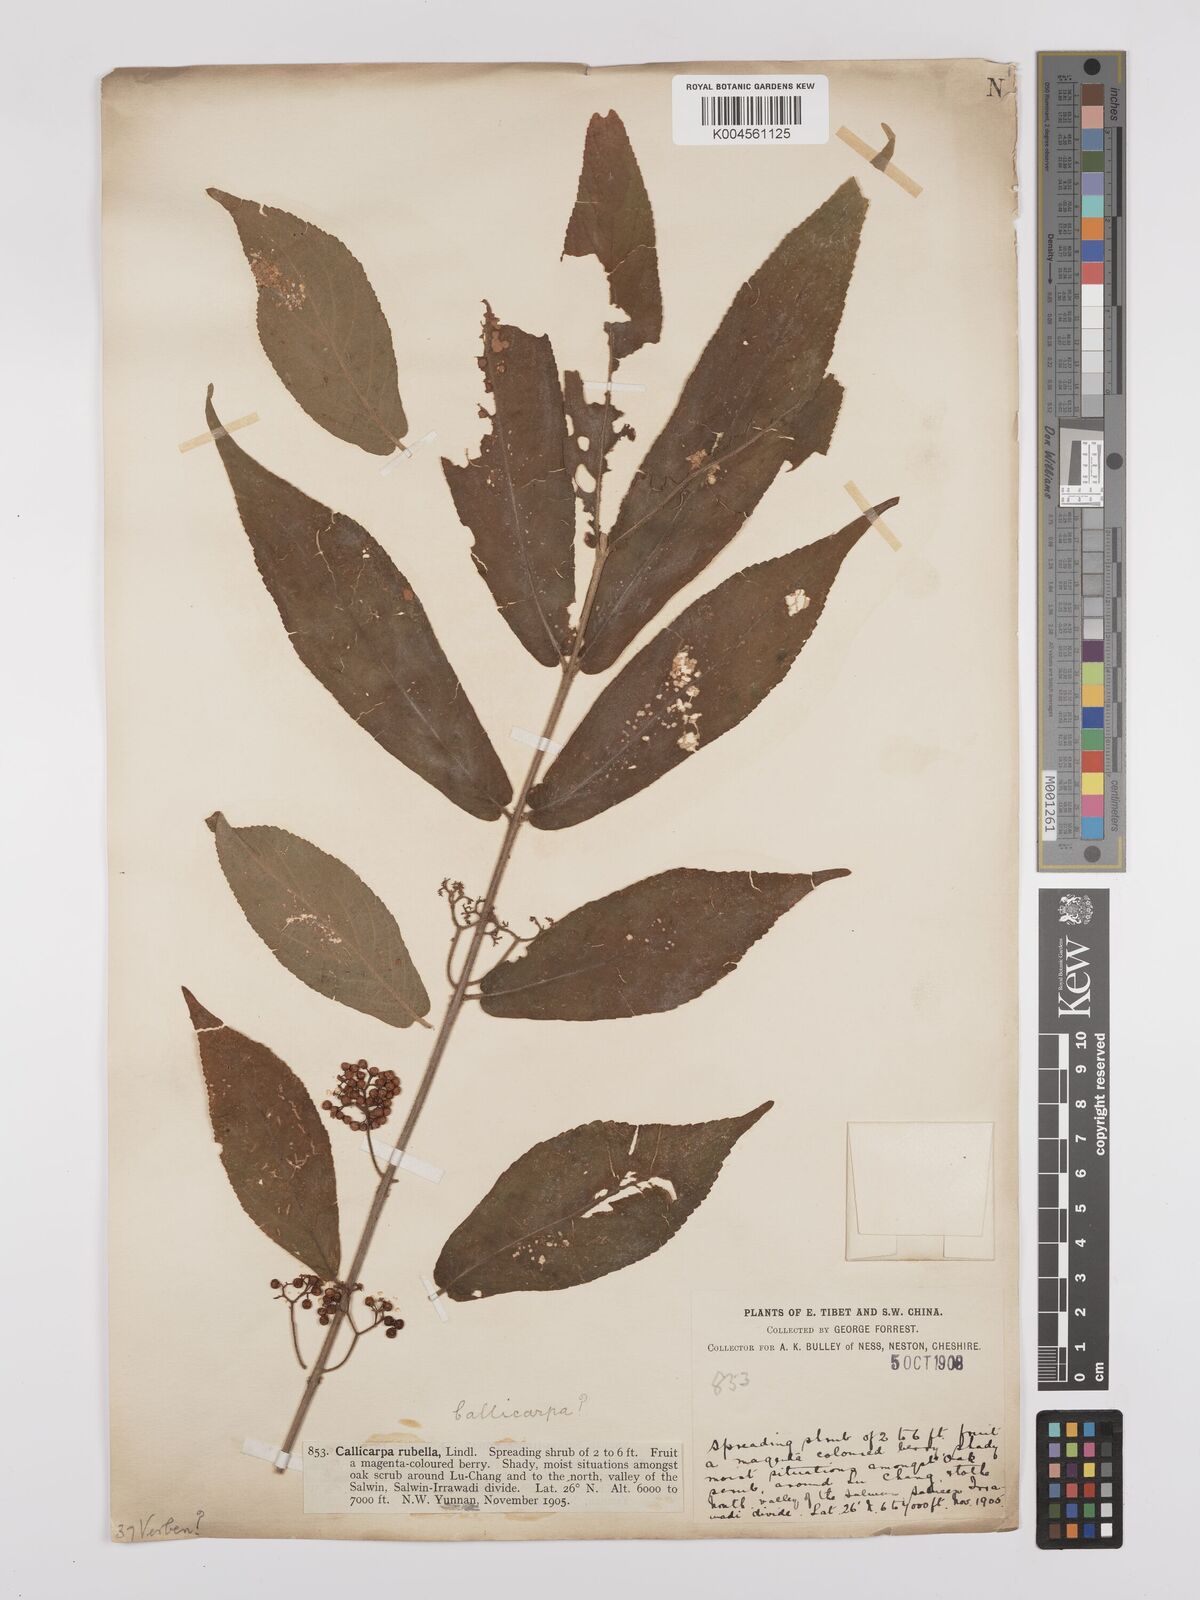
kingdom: Plantae
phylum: Tracheophyta
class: Magnoliopsida
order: Lamiales
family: Lamiaceae
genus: Callicarpa
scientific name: Callicarpa rubella
